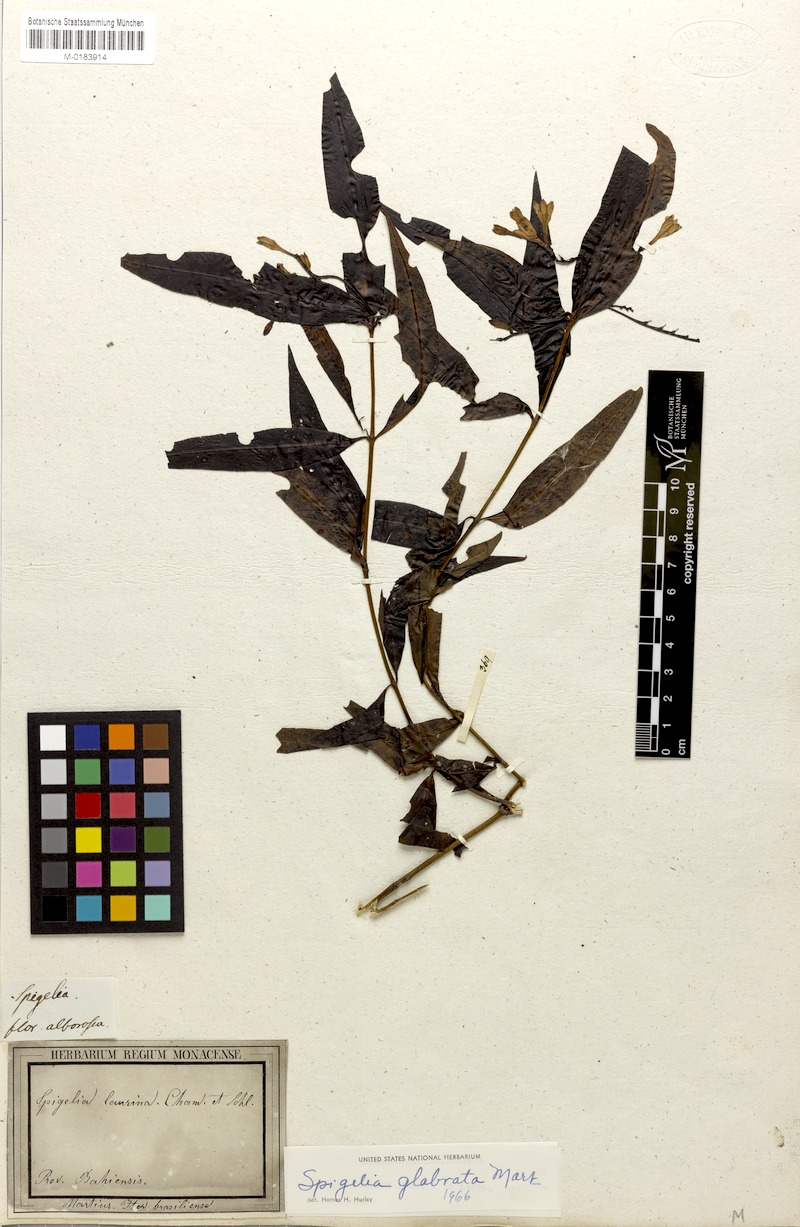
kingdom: Plantae
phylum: Tracheophyta
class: Magnoliopsida
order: Gentianales
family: Loganiaceae
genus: Spigelia
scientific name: Spigelia glabrata
